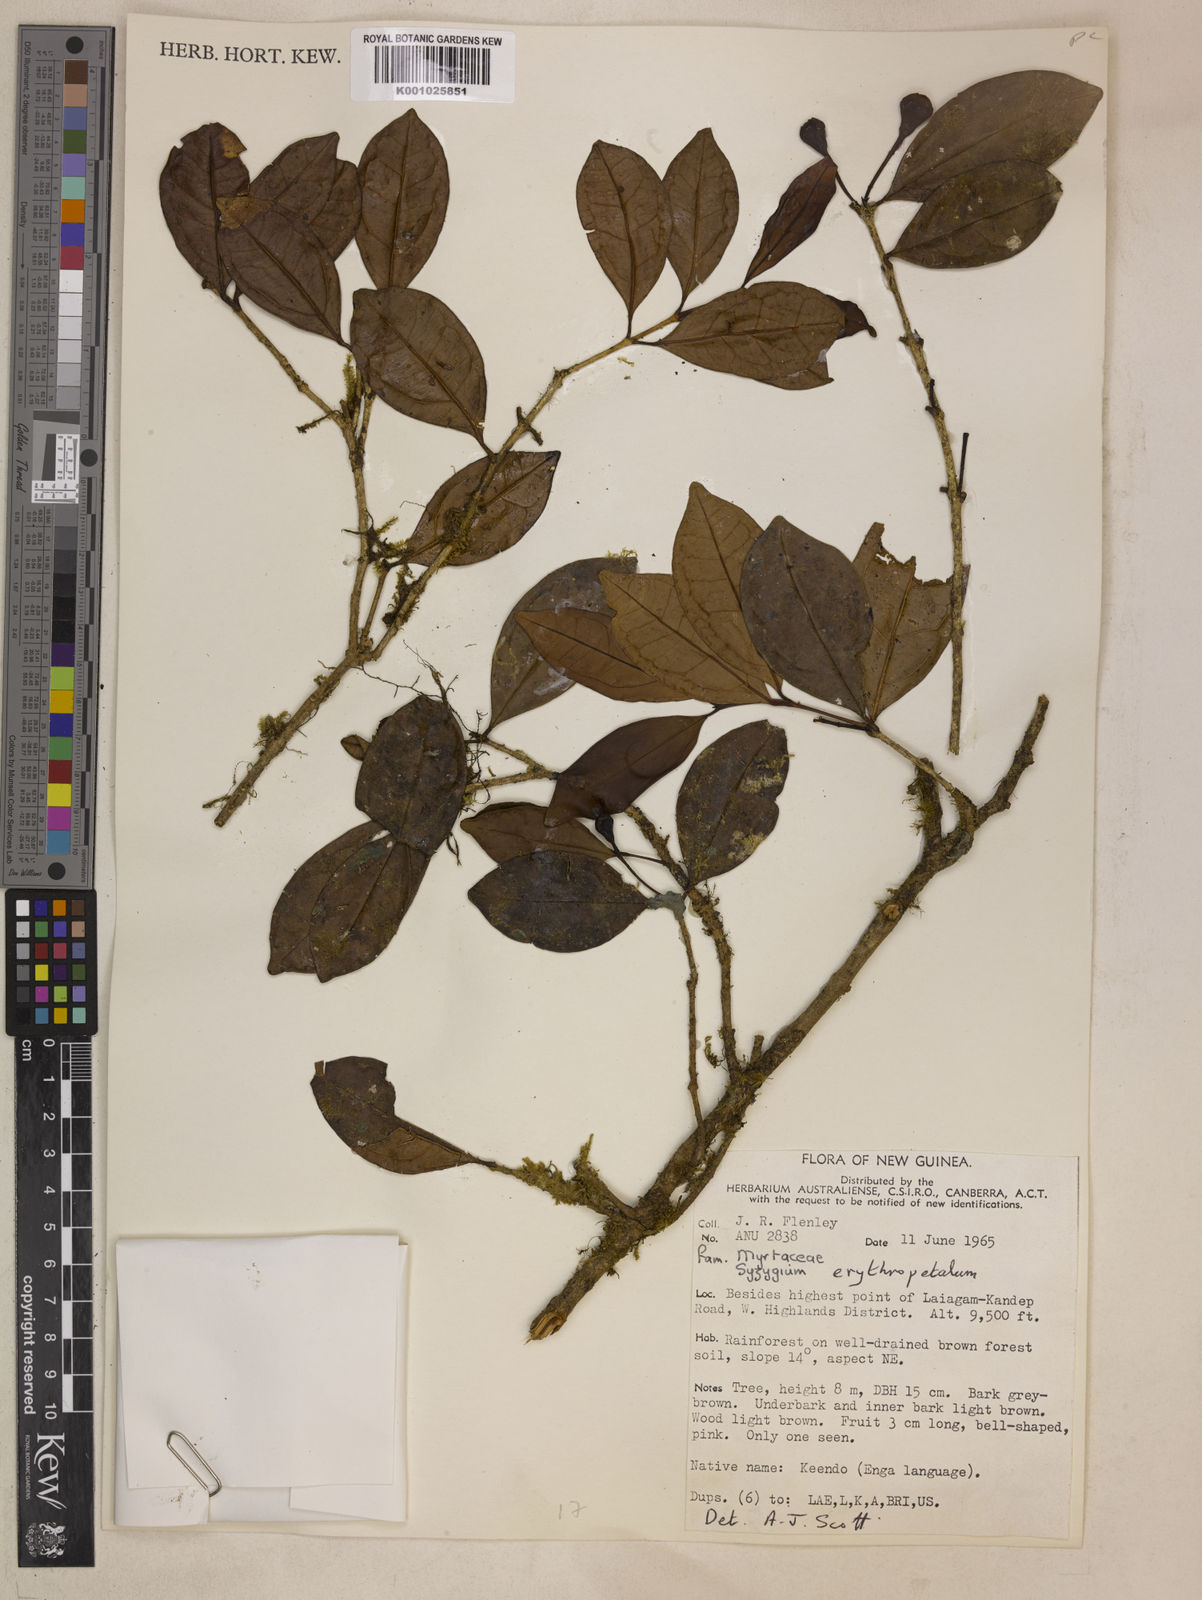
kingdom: Plantae
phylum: Tracheophyta
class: Magnoliopsida
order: Myrtales
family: Myrtaceae
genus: Syzygium
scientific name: Syzygium erythropetalum
